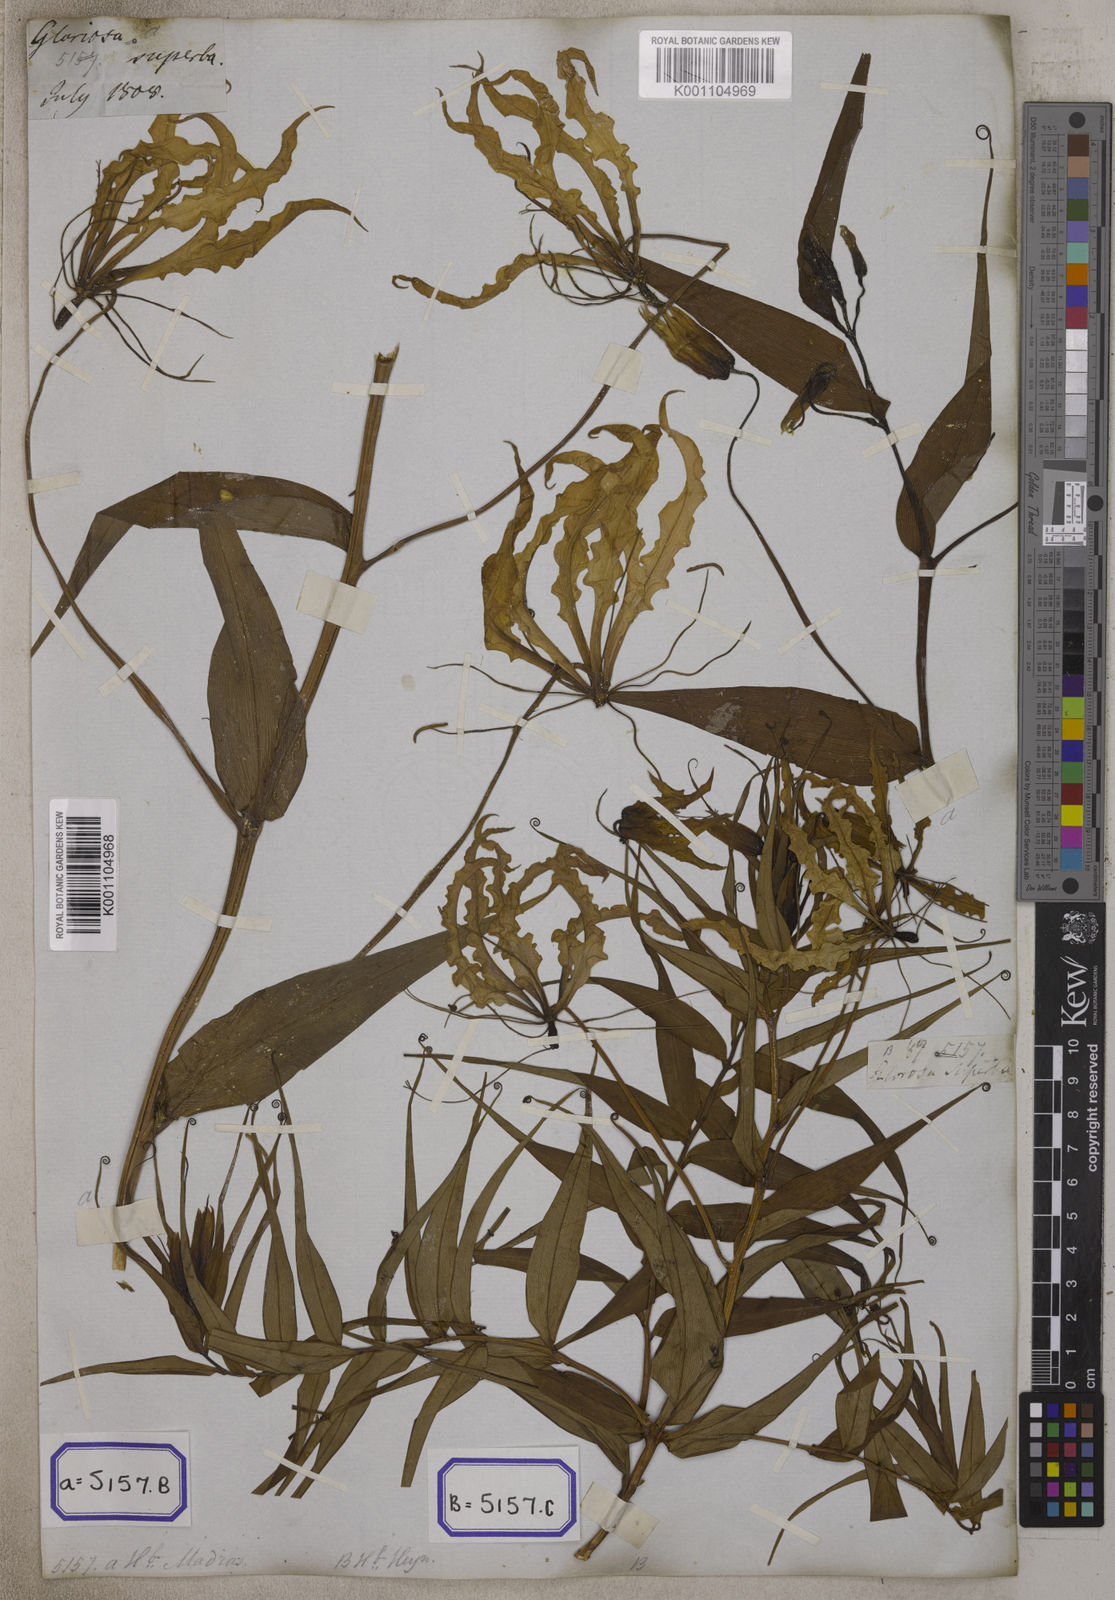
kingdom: Plantae
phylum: Tracheophyta
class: Liliopsida
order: Liliales
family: Colchicaceae
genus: Gloriosa
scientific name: Gloriosa superba
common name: Flame lily
